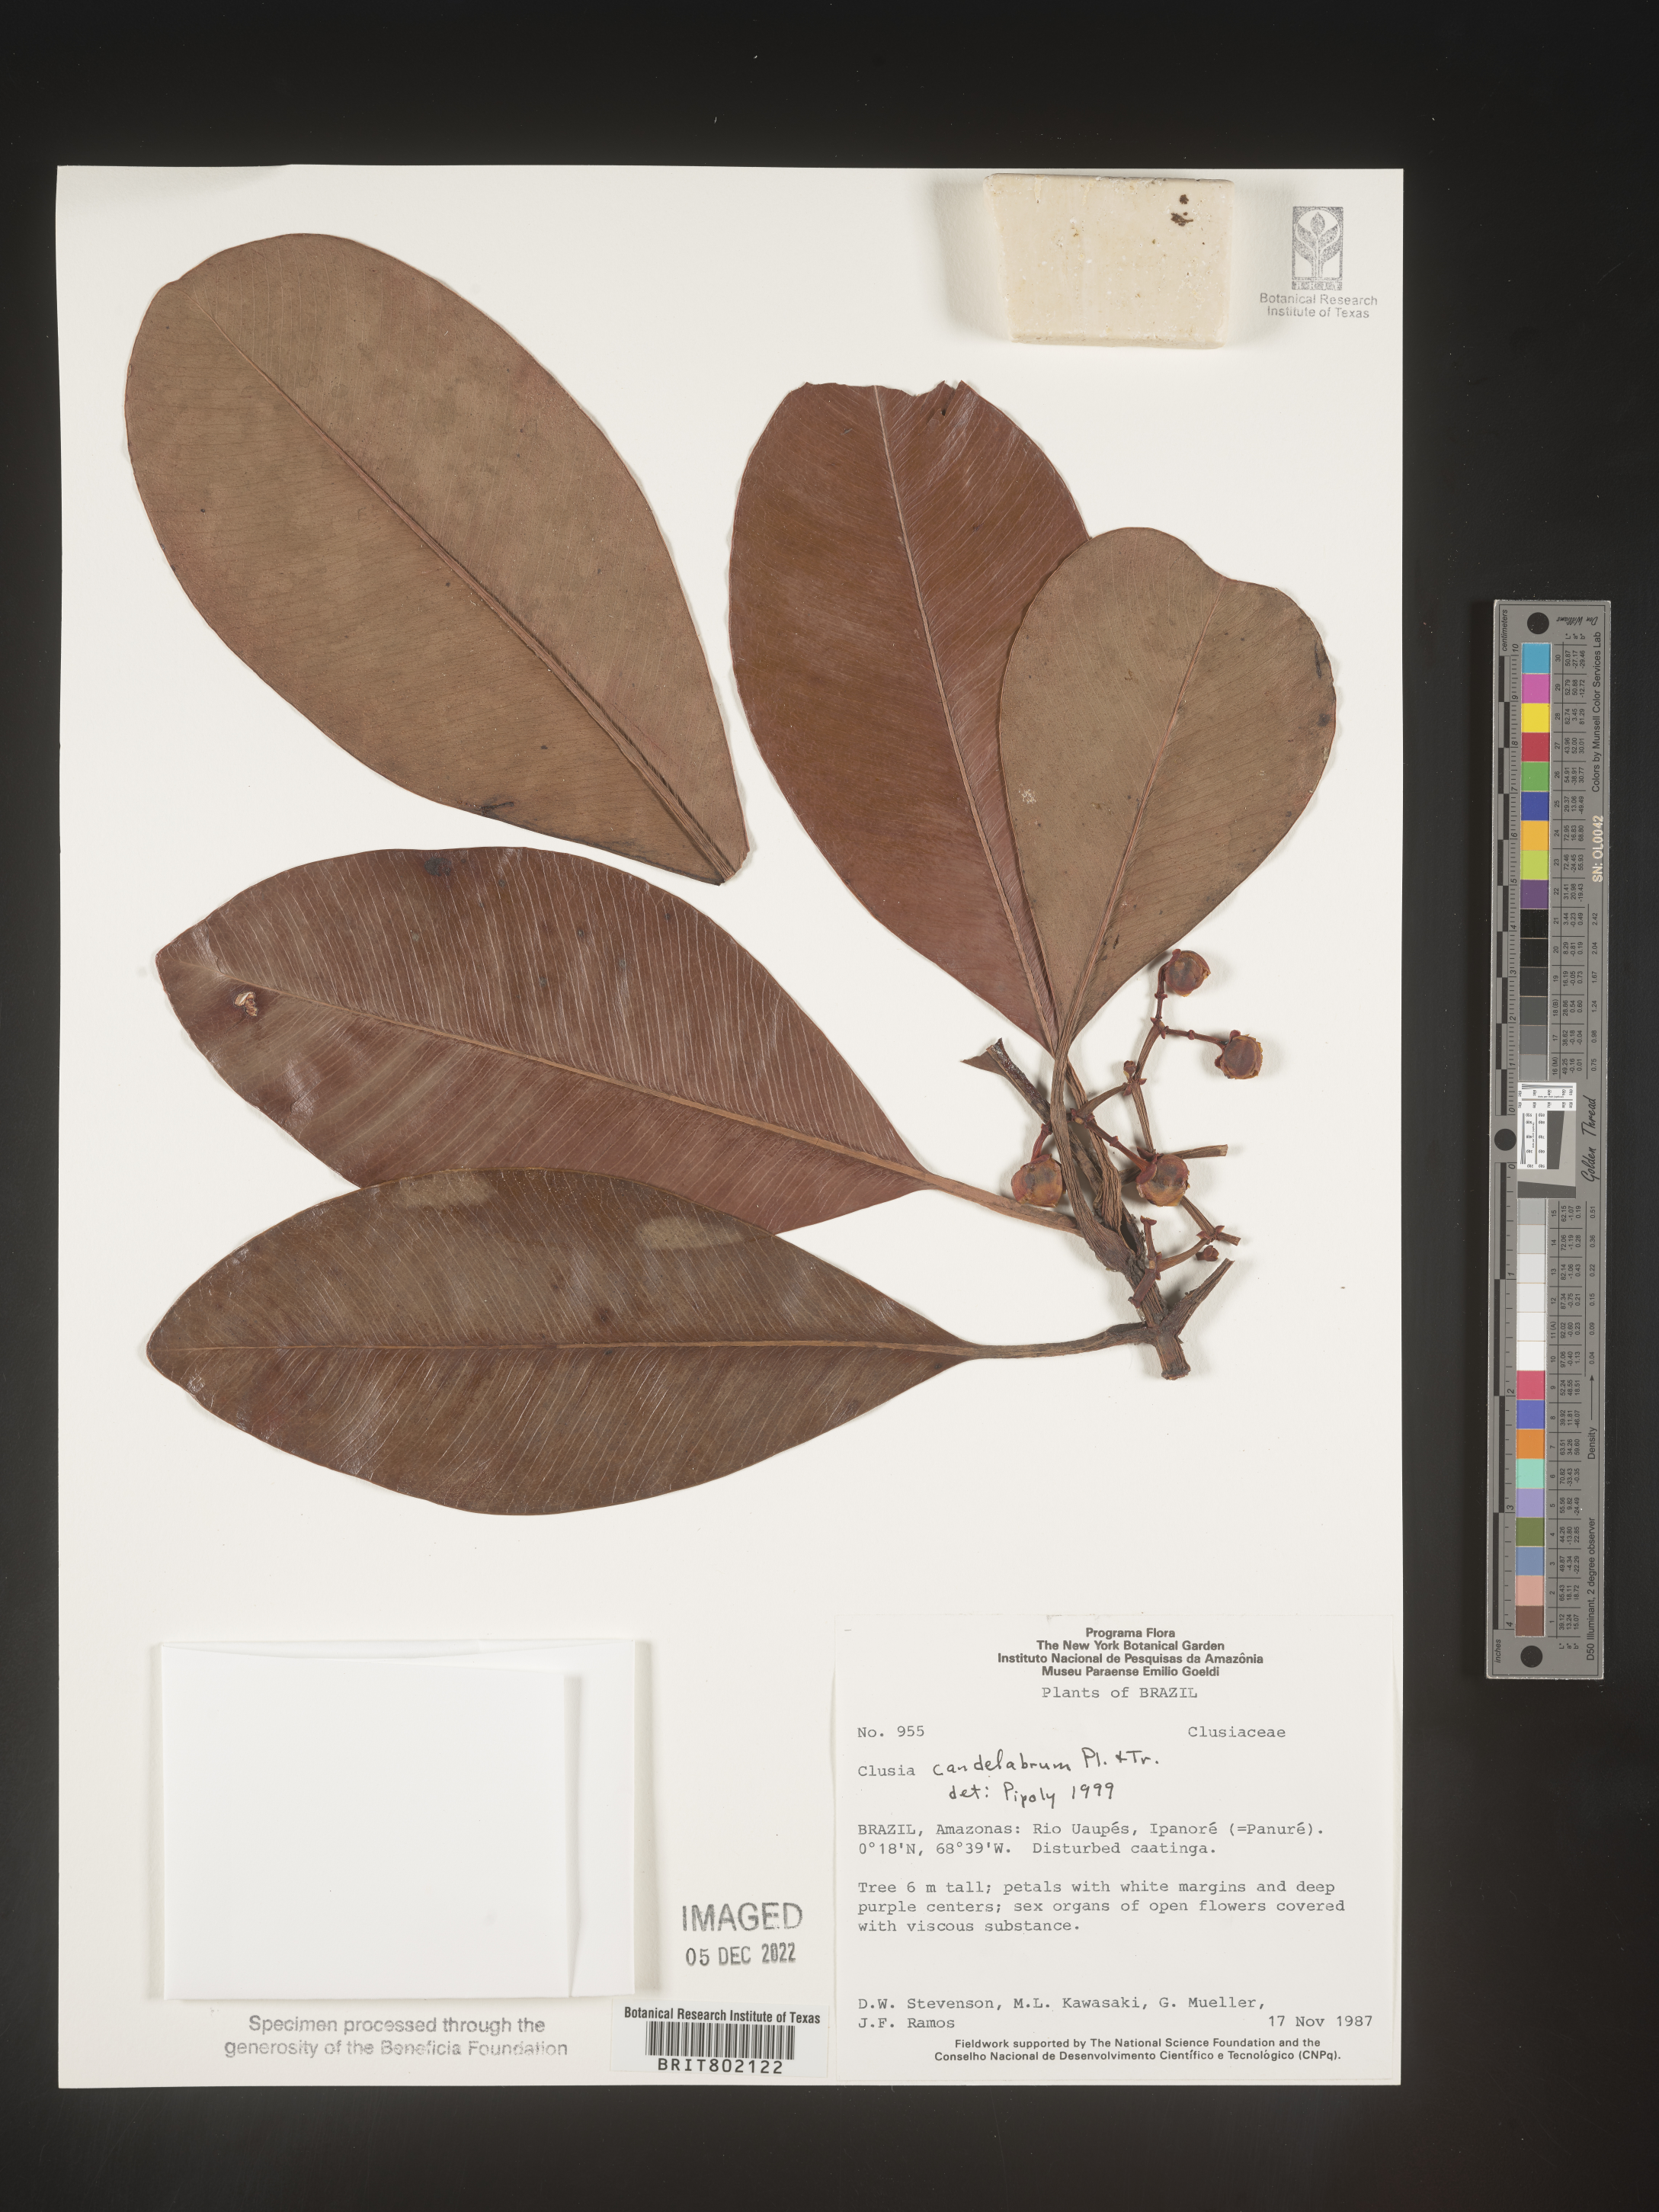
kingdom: Plantae
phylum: Tracheophyta
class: Magnoliopsida
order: Malpighiales
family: Clusiaceae
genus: Clusia
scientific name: Clusia candelabrum
